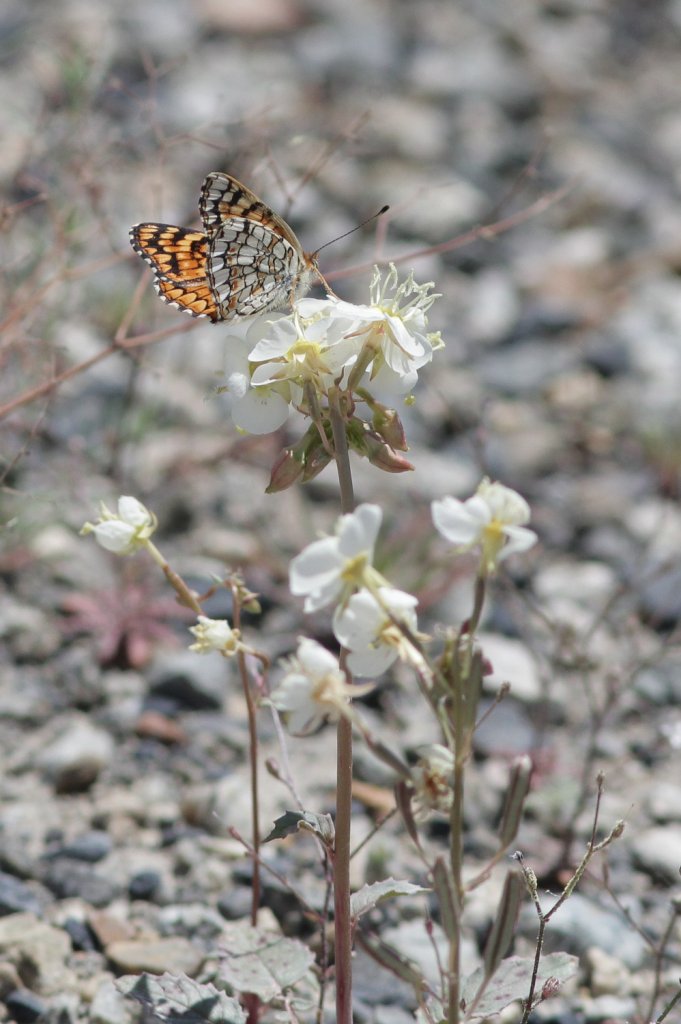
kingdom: Animalia
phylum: Arthropoda
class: Insecta
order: Lepidoptera
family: Nymphalidae
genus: Chlosyne
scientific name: Chlosyne acastus
